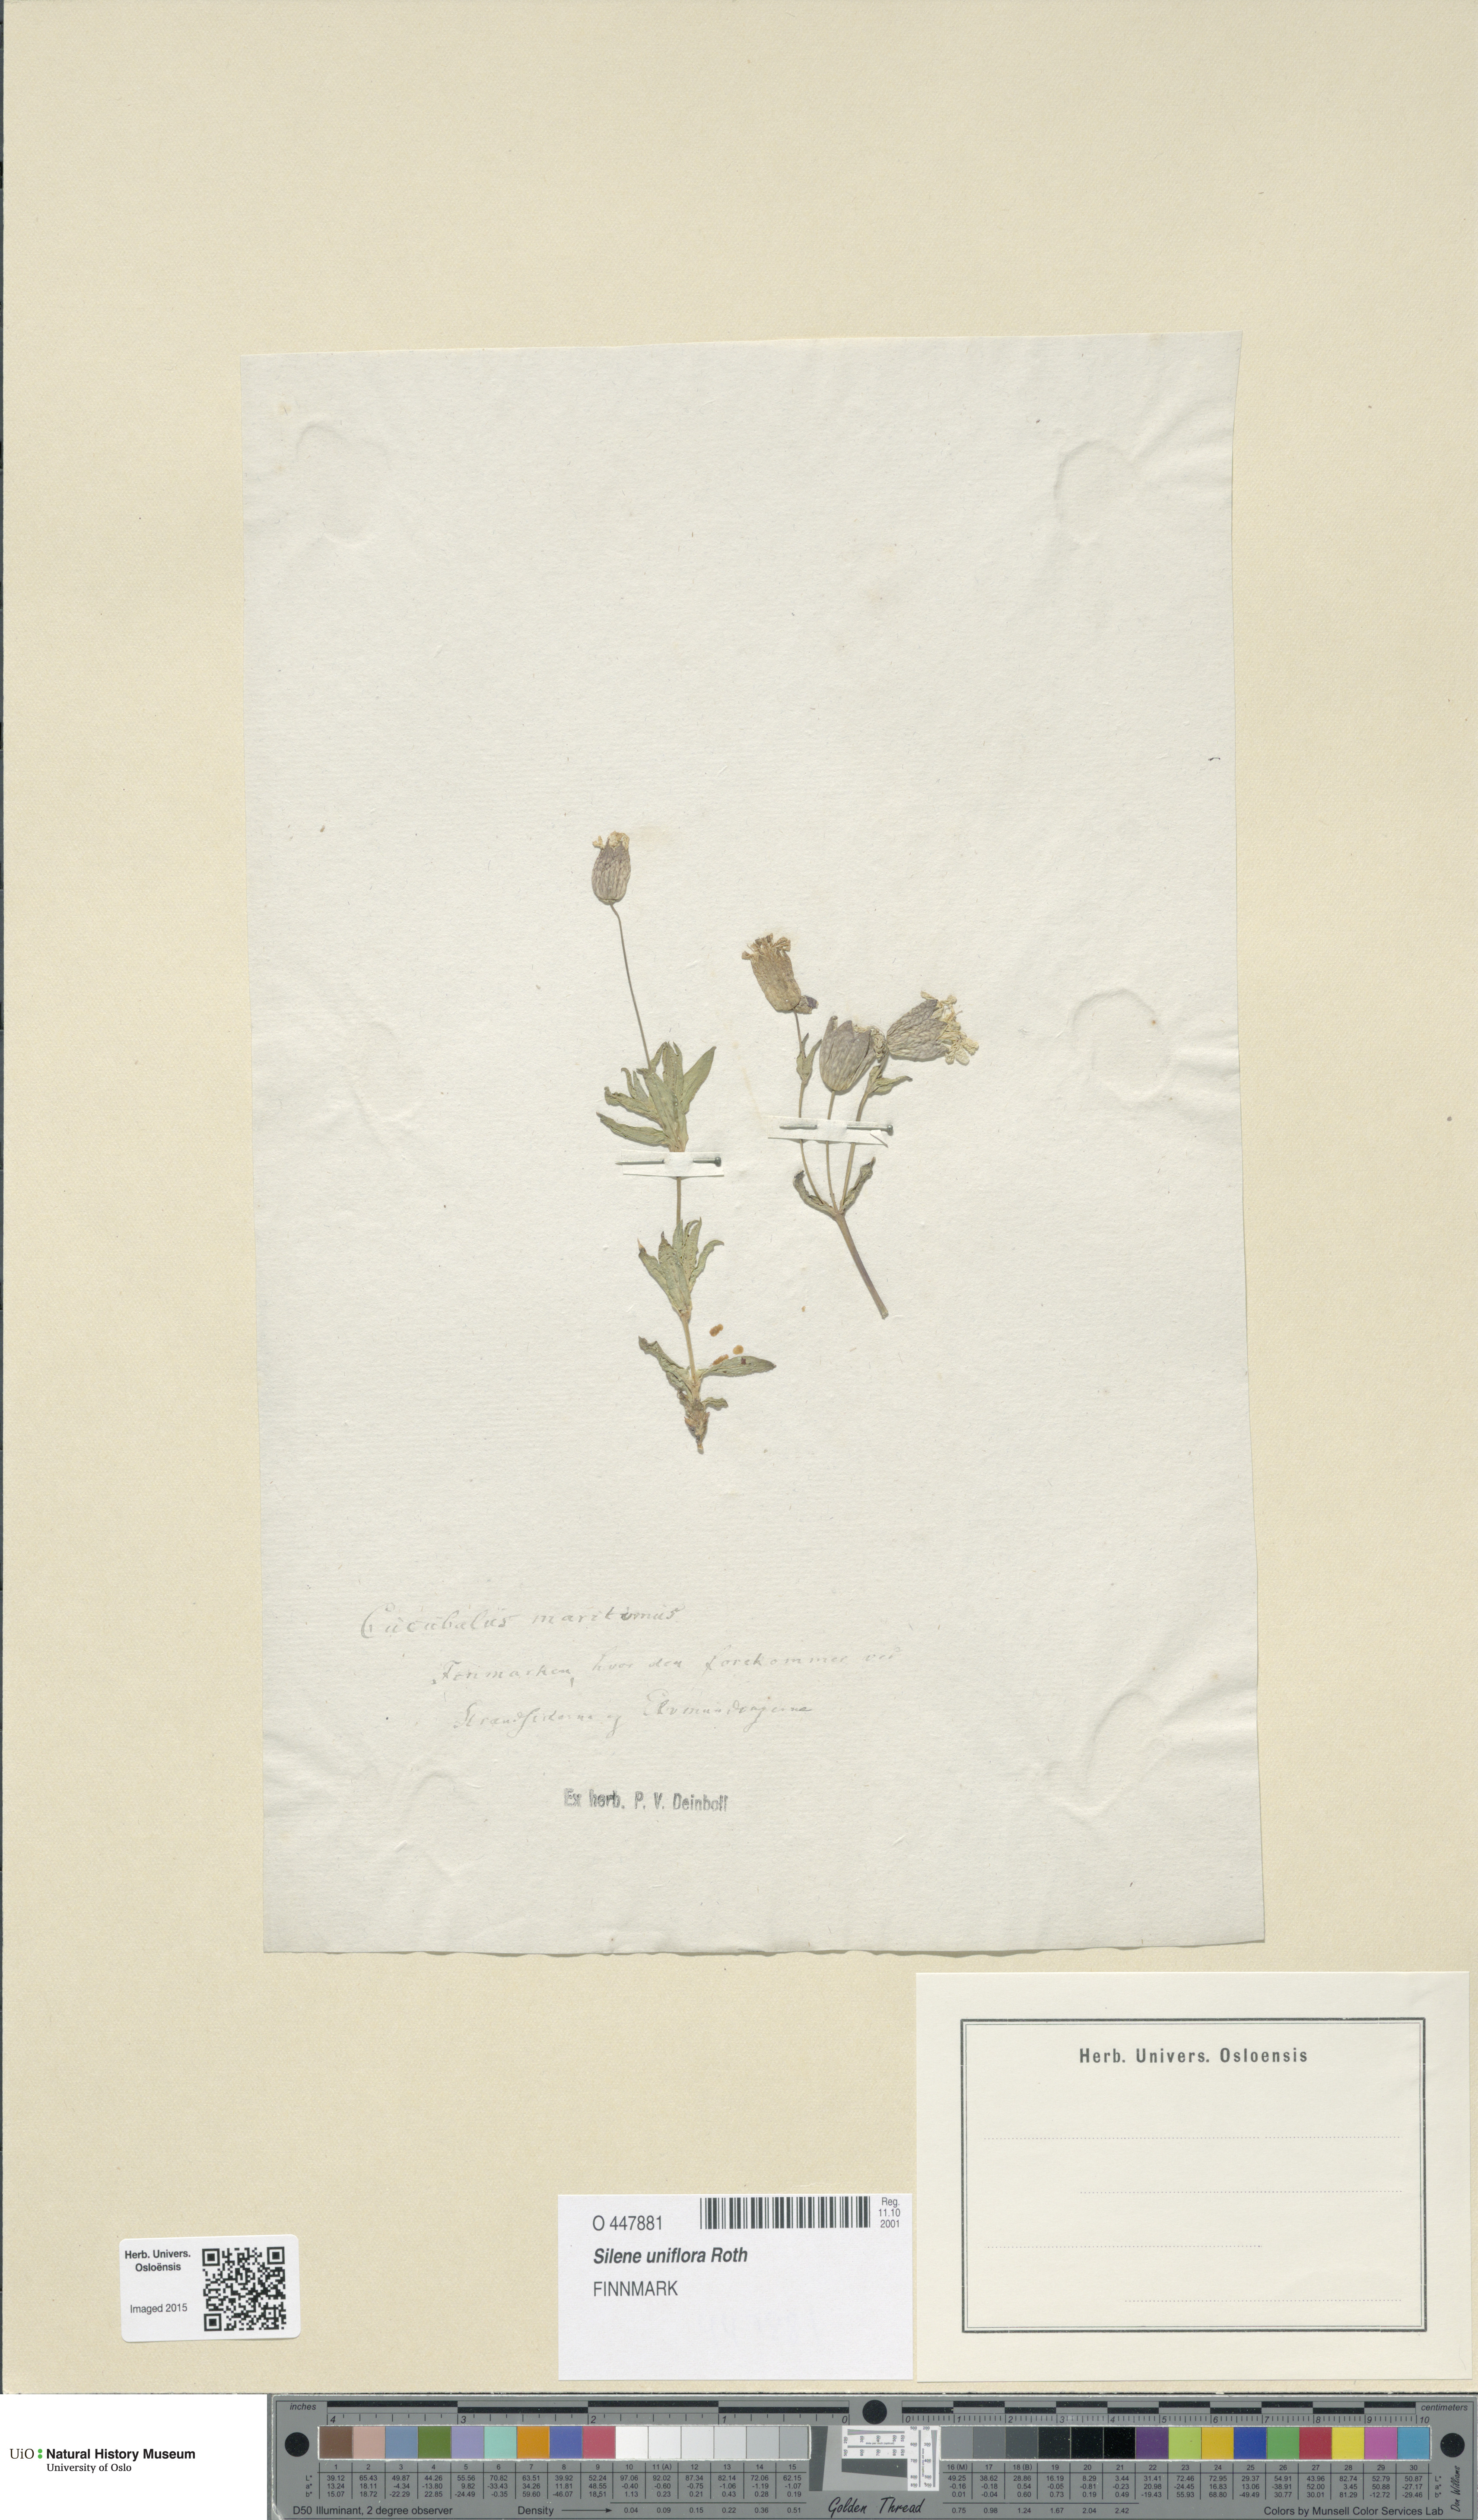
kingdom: Plantae
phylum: Tracheophyta
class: Magnoliopsida
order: Caryophyllales
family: Caryophyllaceae
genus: Silene
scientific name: Silene uniflora
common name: Sea campion
